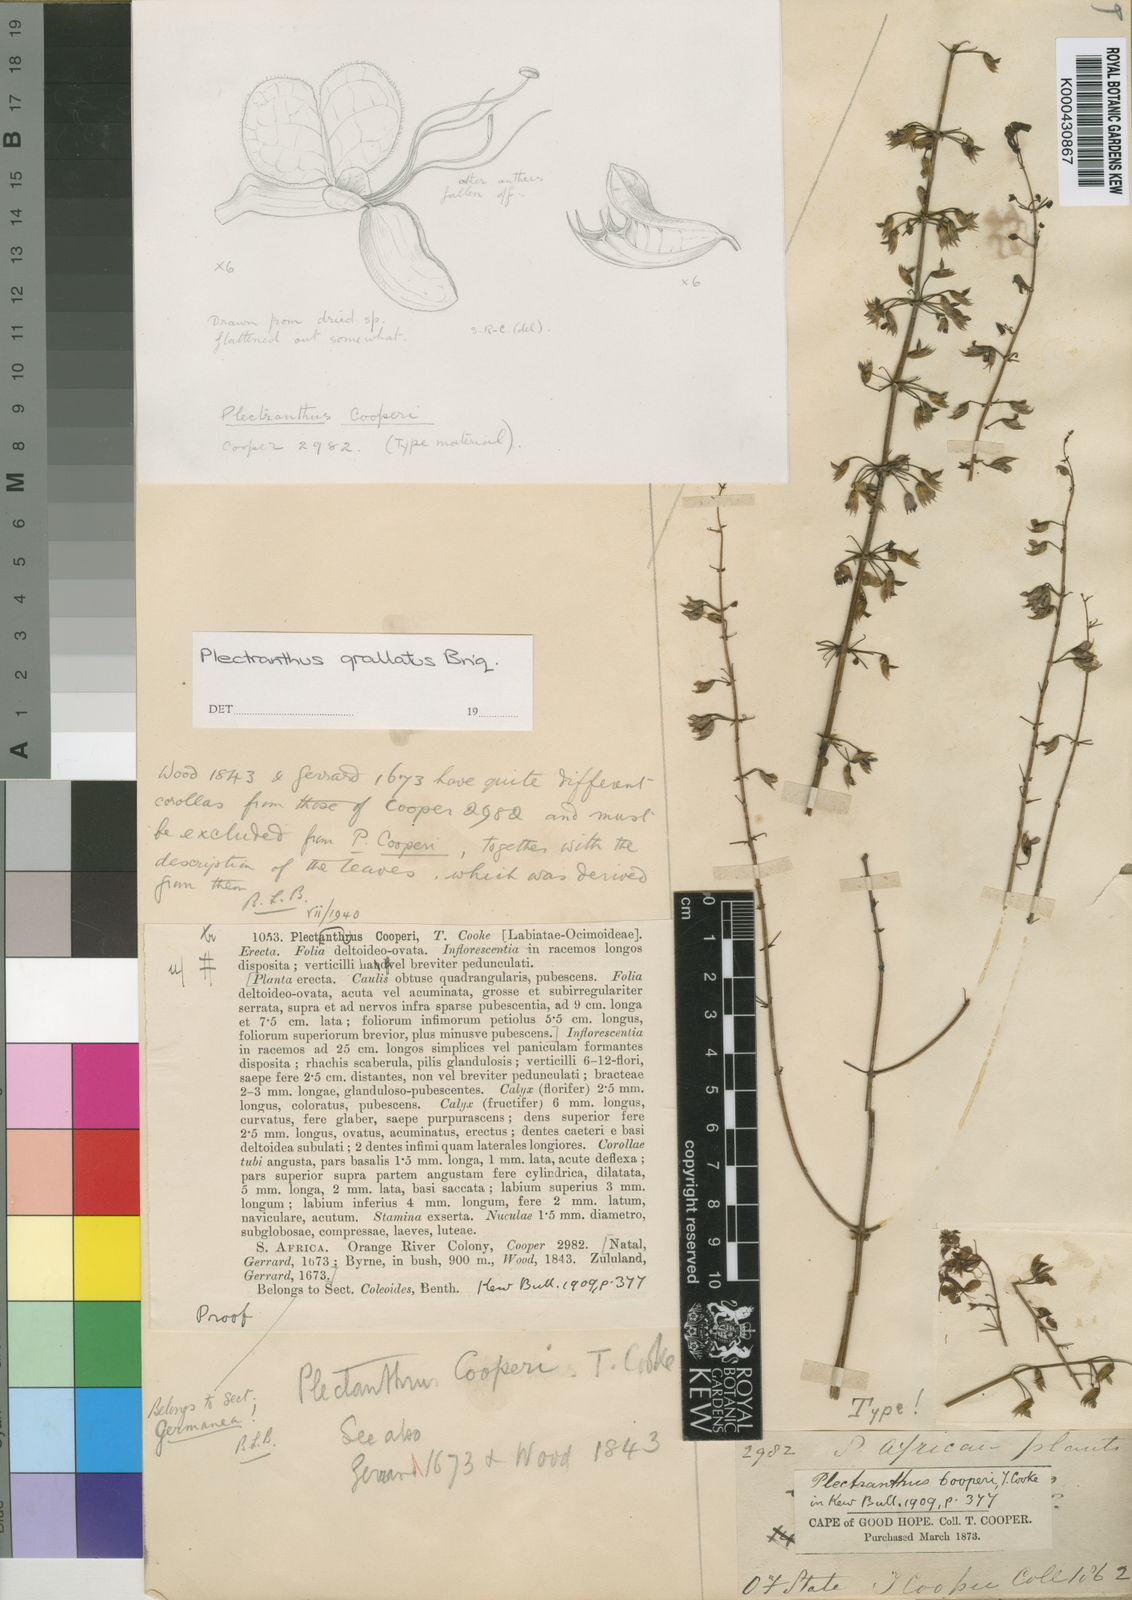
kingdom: Plantae
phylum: Tracheophyta
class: Magnoliopsida
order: Lamiales
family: Lamiaceae
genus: Plectranthus
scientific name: Plectranthus grallatus
